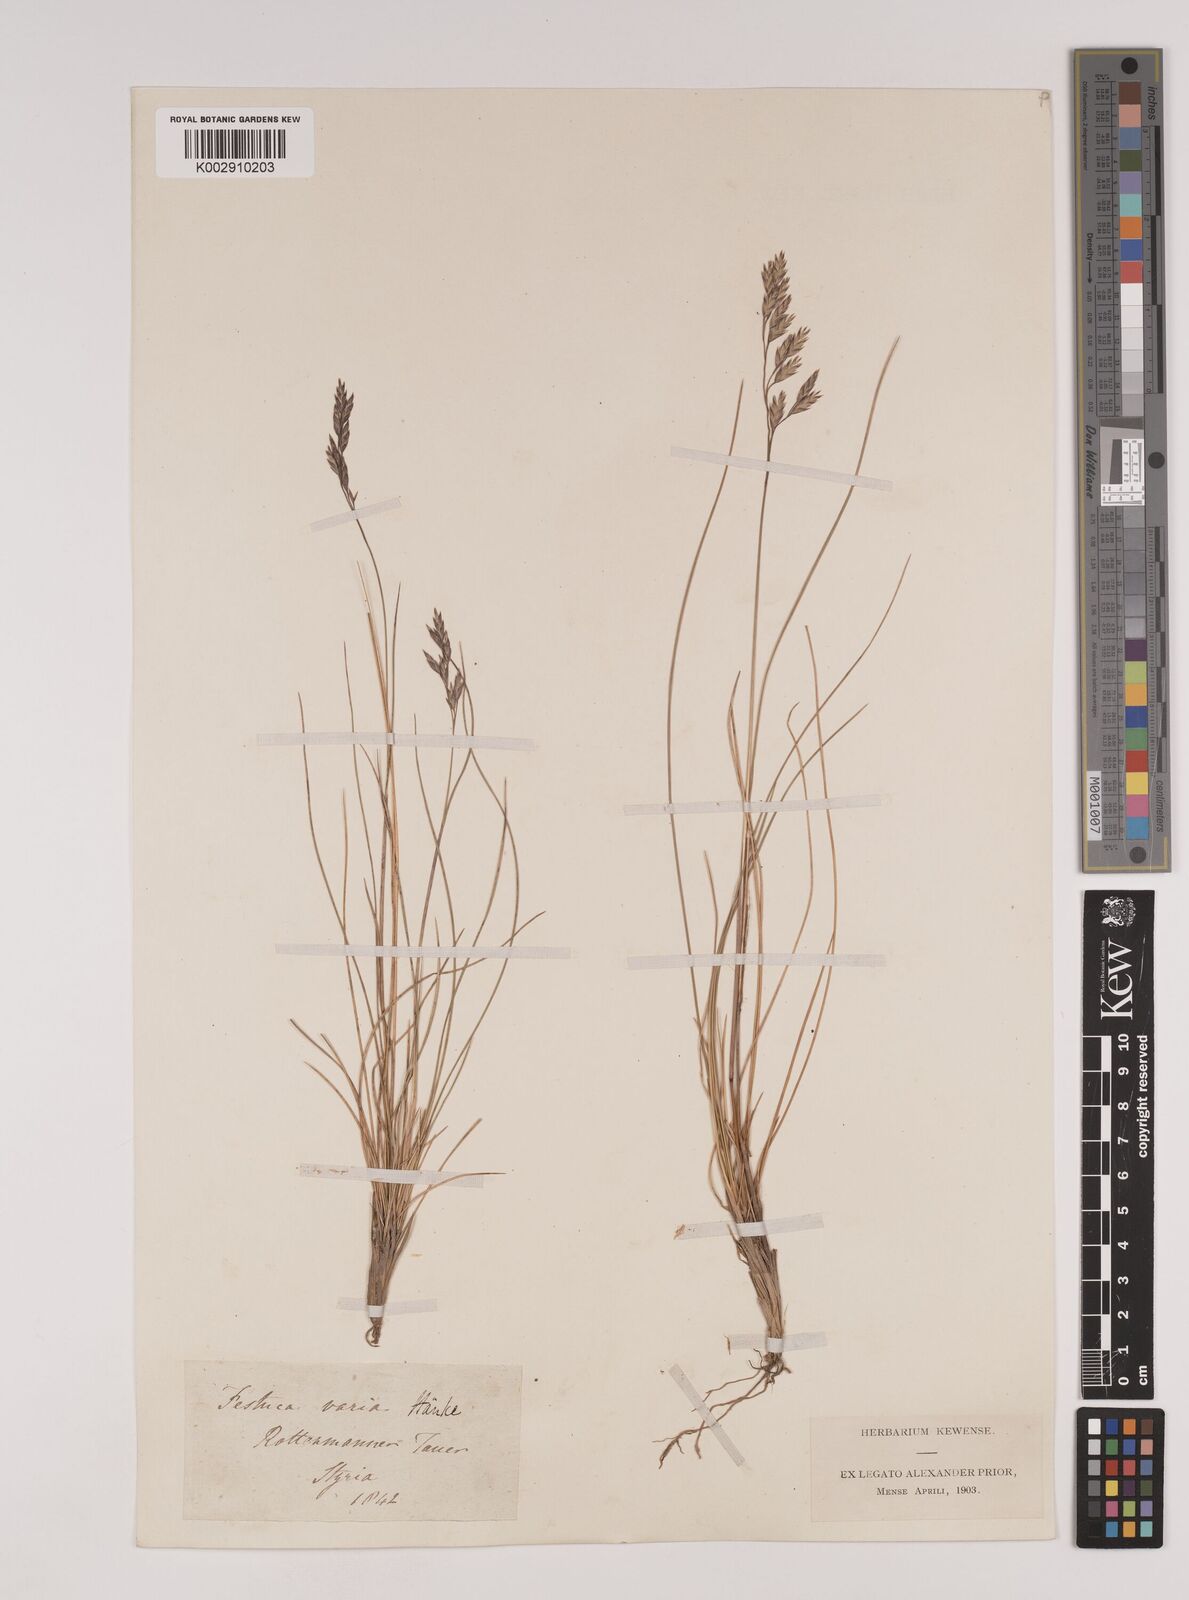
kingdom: Plantae
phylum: Tracheophyta
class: Liliopsida
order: Poales
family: Poaceae
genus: Festuca
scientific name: Festuca varia
